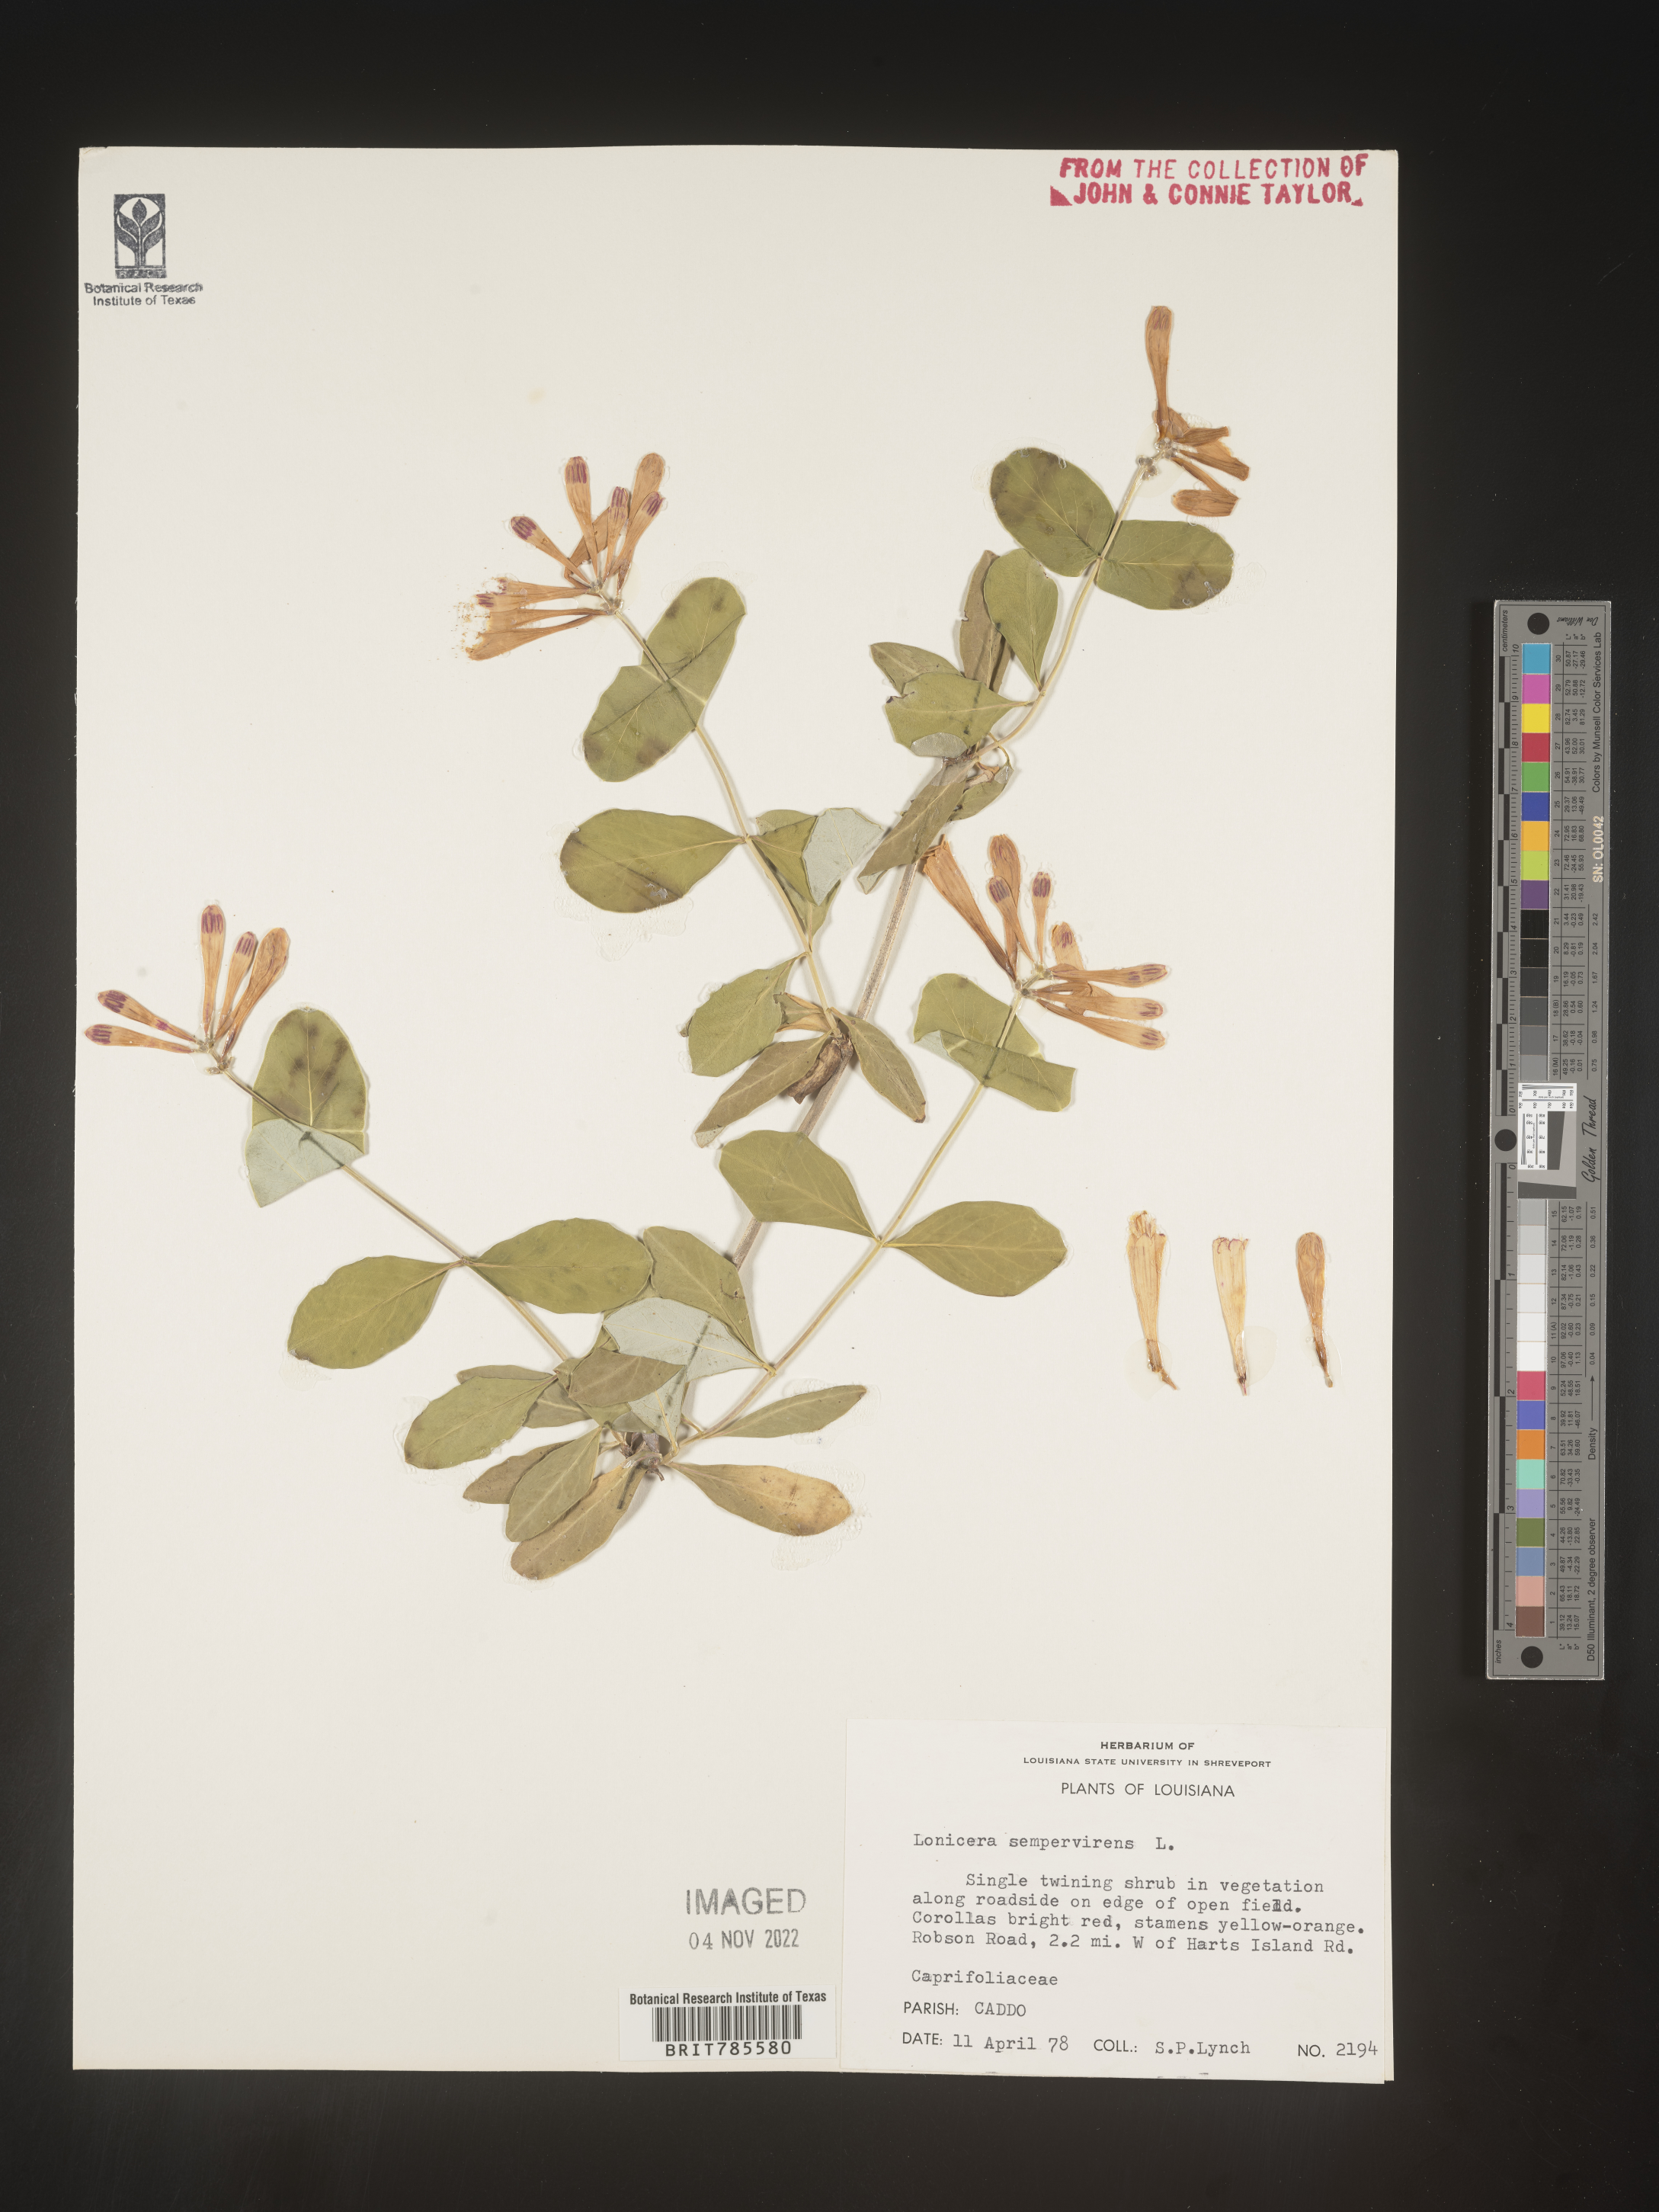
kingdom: Plantae
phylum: Tracheophyta
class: Magnoliopsida
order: Dipsacales
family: Caprifoliaceae
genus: Lonicera
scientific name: Lonicera sempervirens
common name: Coral honeysuckle
